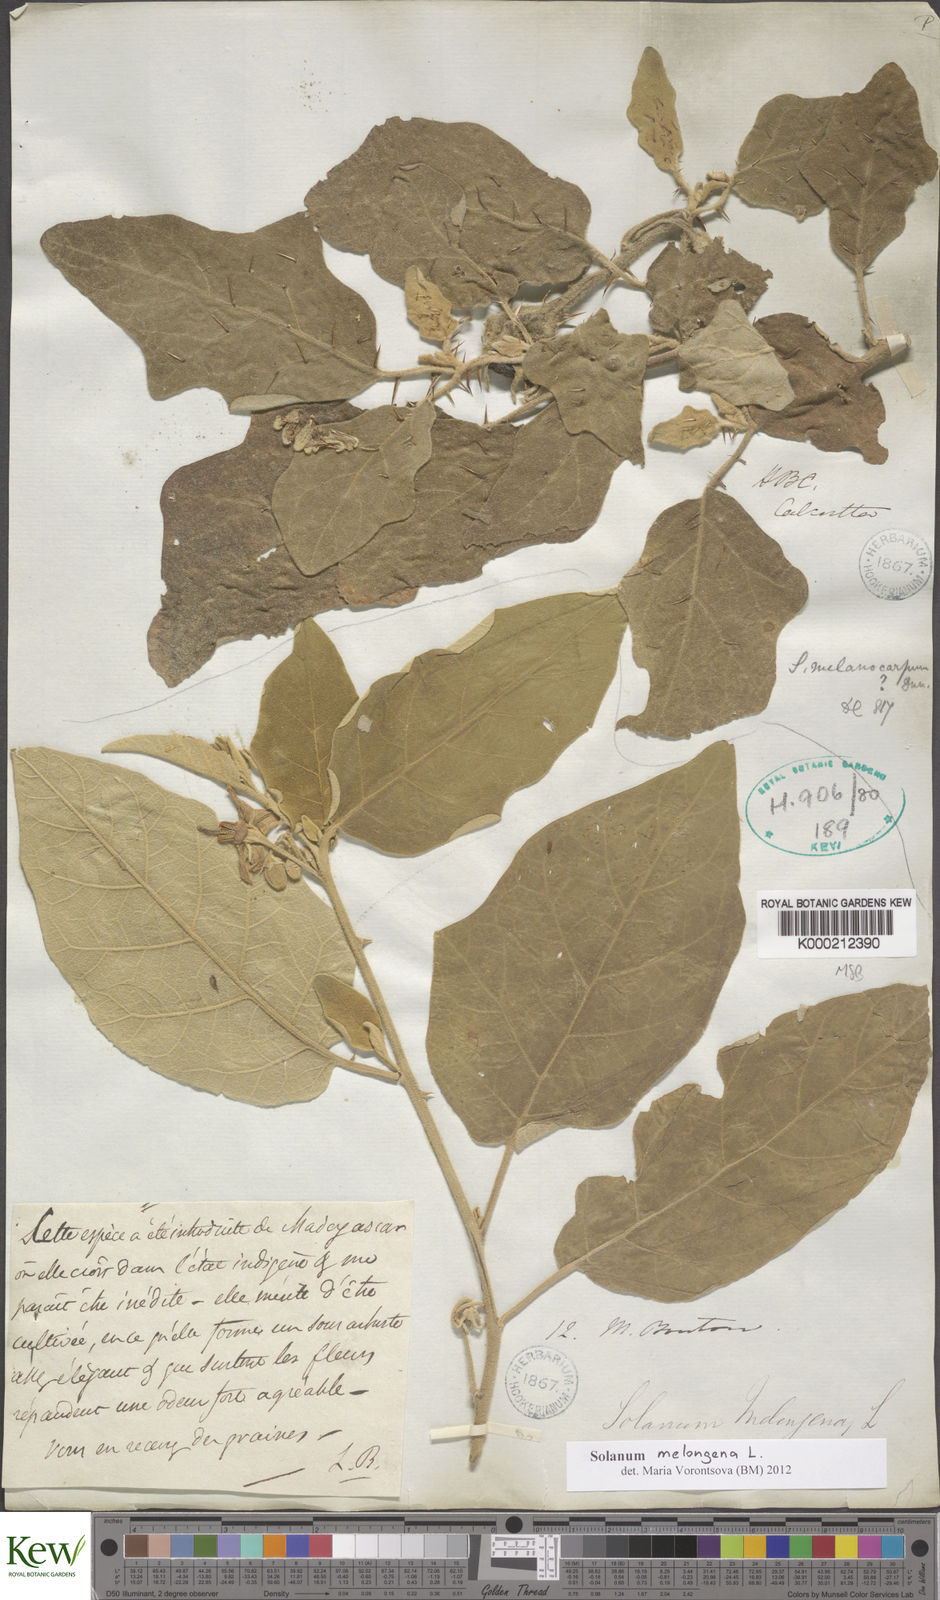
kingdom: Plantae
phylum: Tracheophyta
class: Magnoliopsida
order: Solanales
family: Solanaceae
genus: Solanum
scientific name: Solanum melongena
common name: Eggplant
